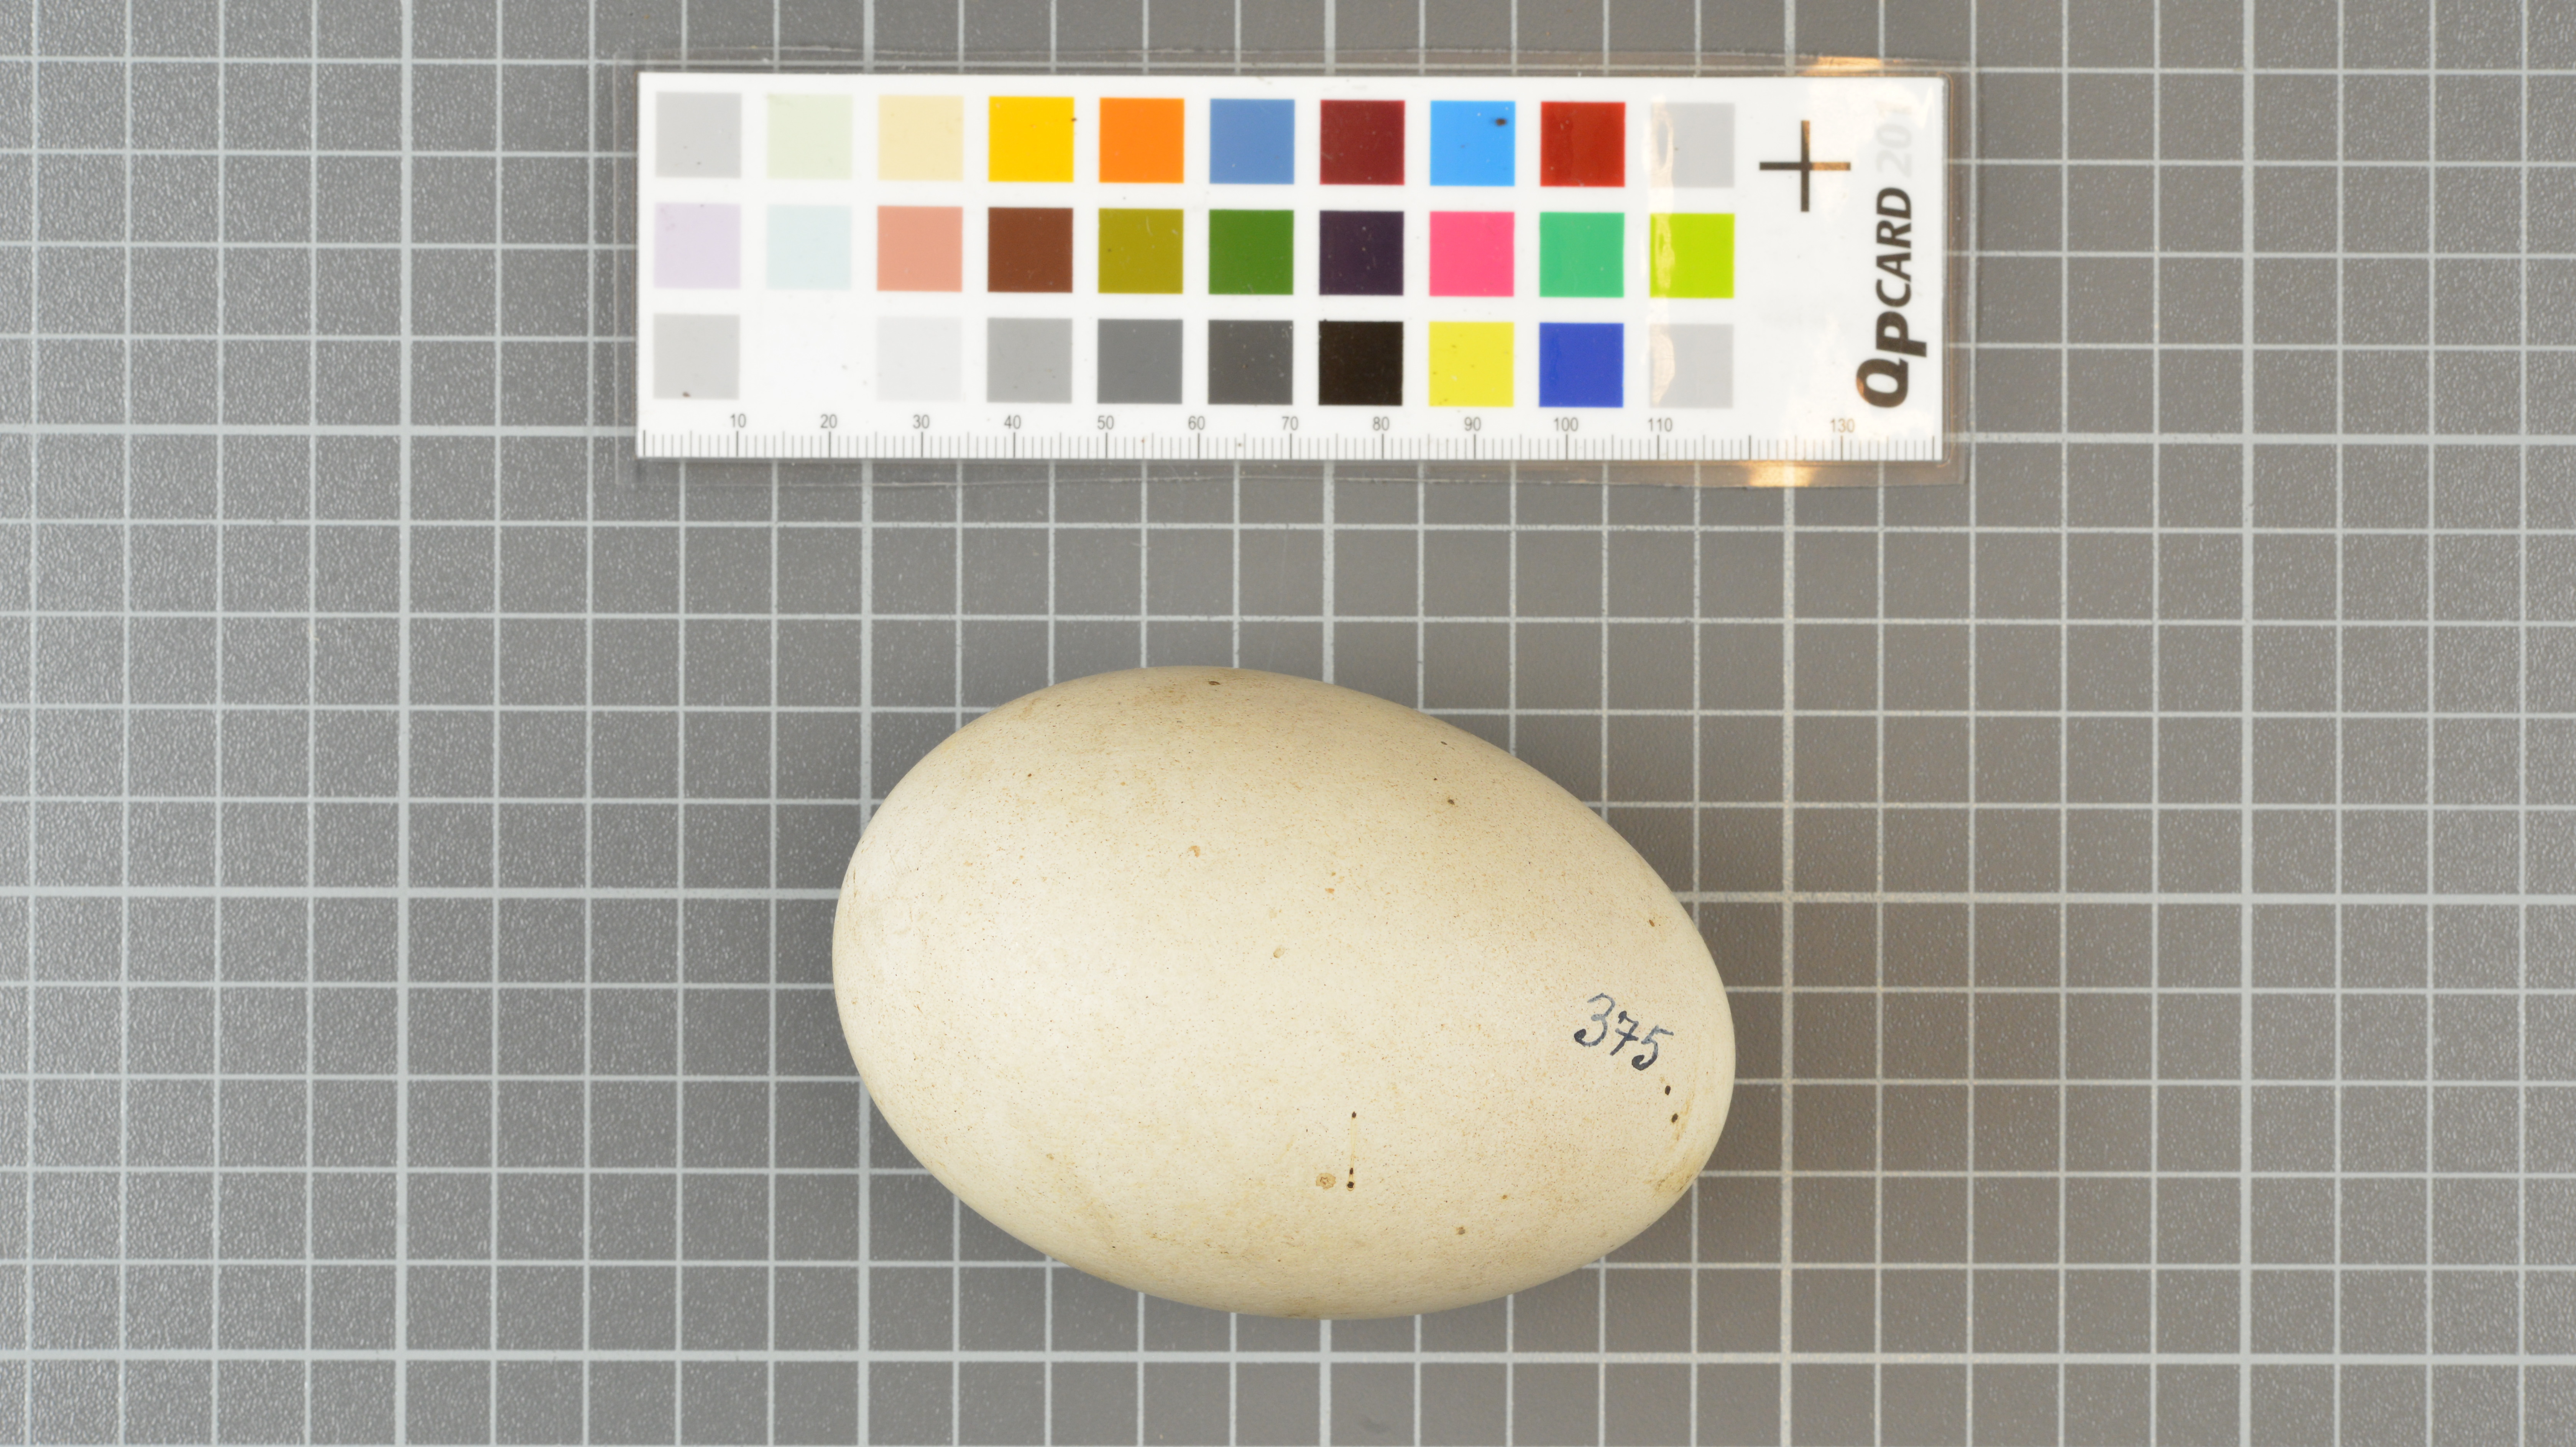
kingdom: Animalia
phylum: Chordata
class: Aves
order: Procellariiformes
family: Diomedeidae
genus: Thalassarche
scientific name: Thalassarche chlororhynchos
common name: Atlantic yellow-nosed albatross
